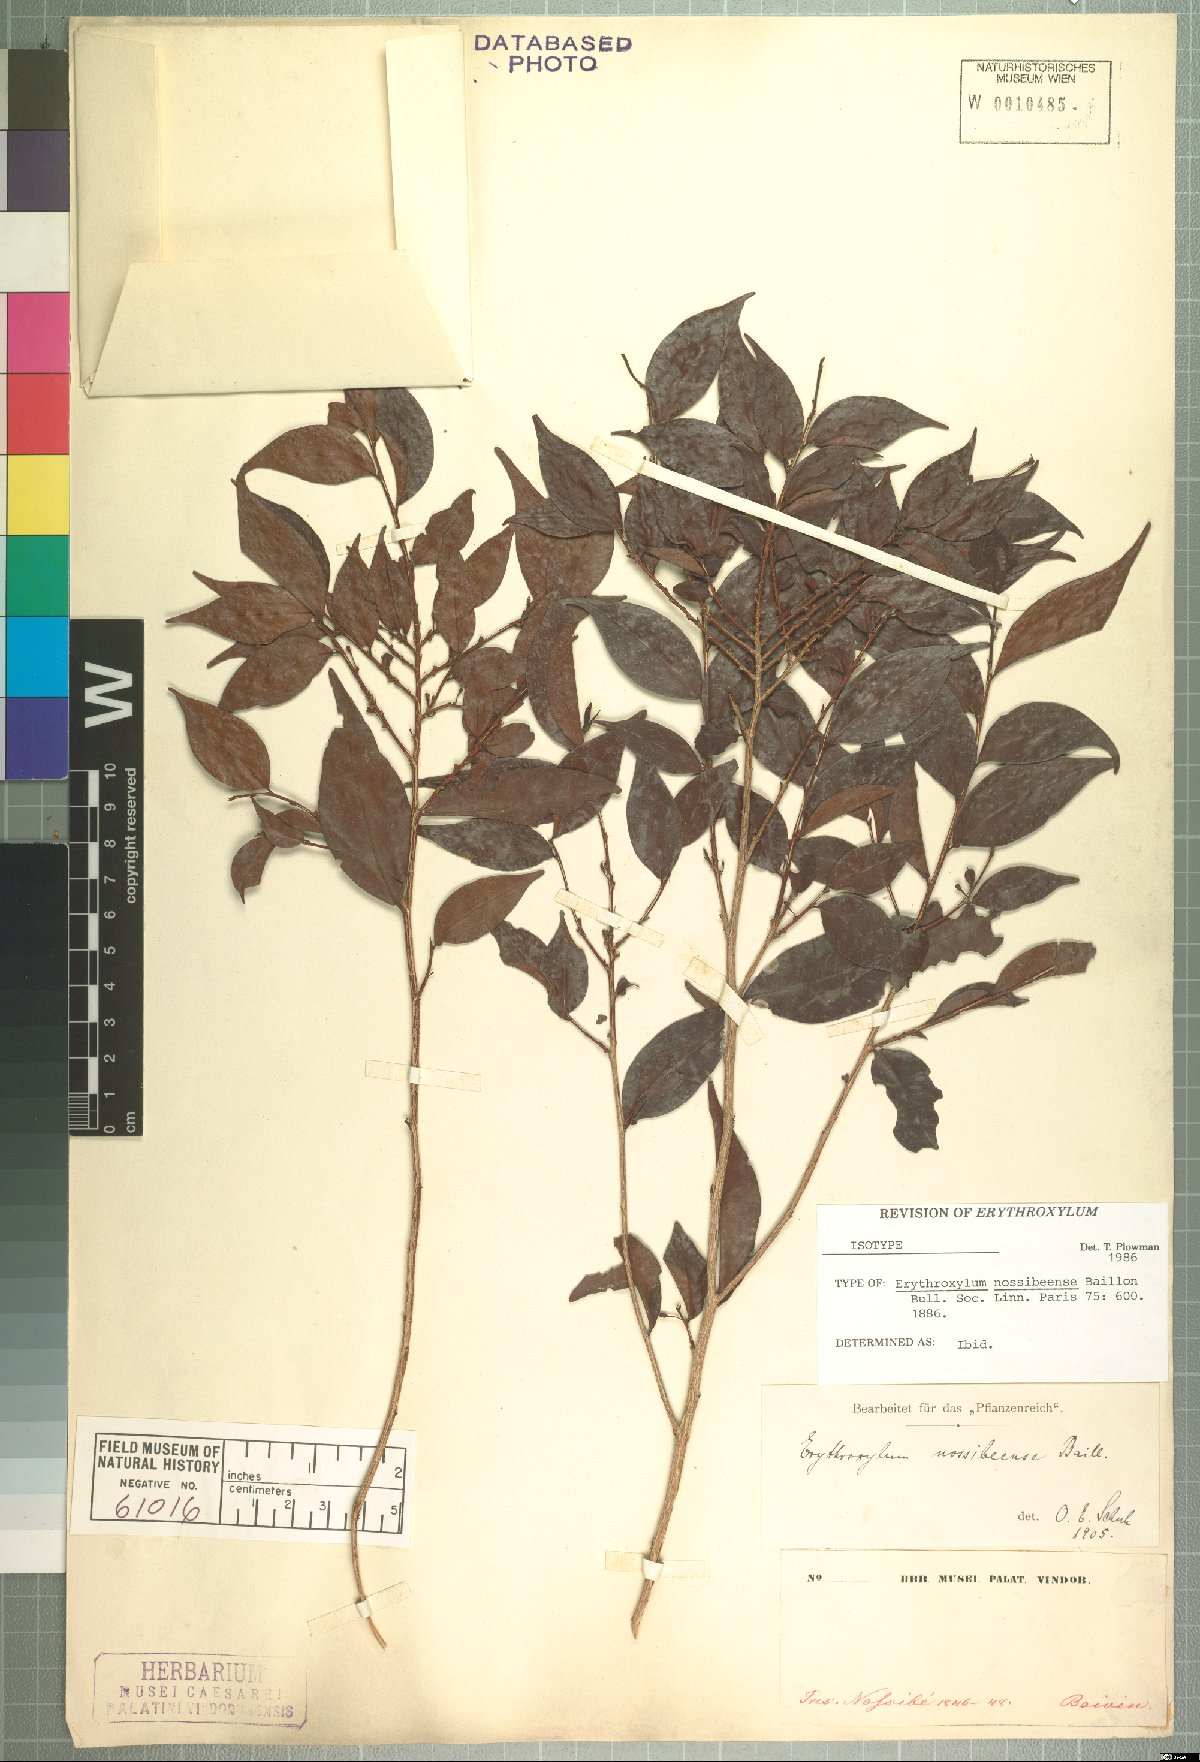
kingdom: Plantae
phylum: Tracheophyta
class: Magnoliopsida
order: Malpighiales
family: Erythroxylaceae
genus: Erythroxylum
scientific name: Erythroxylum nossibeense
